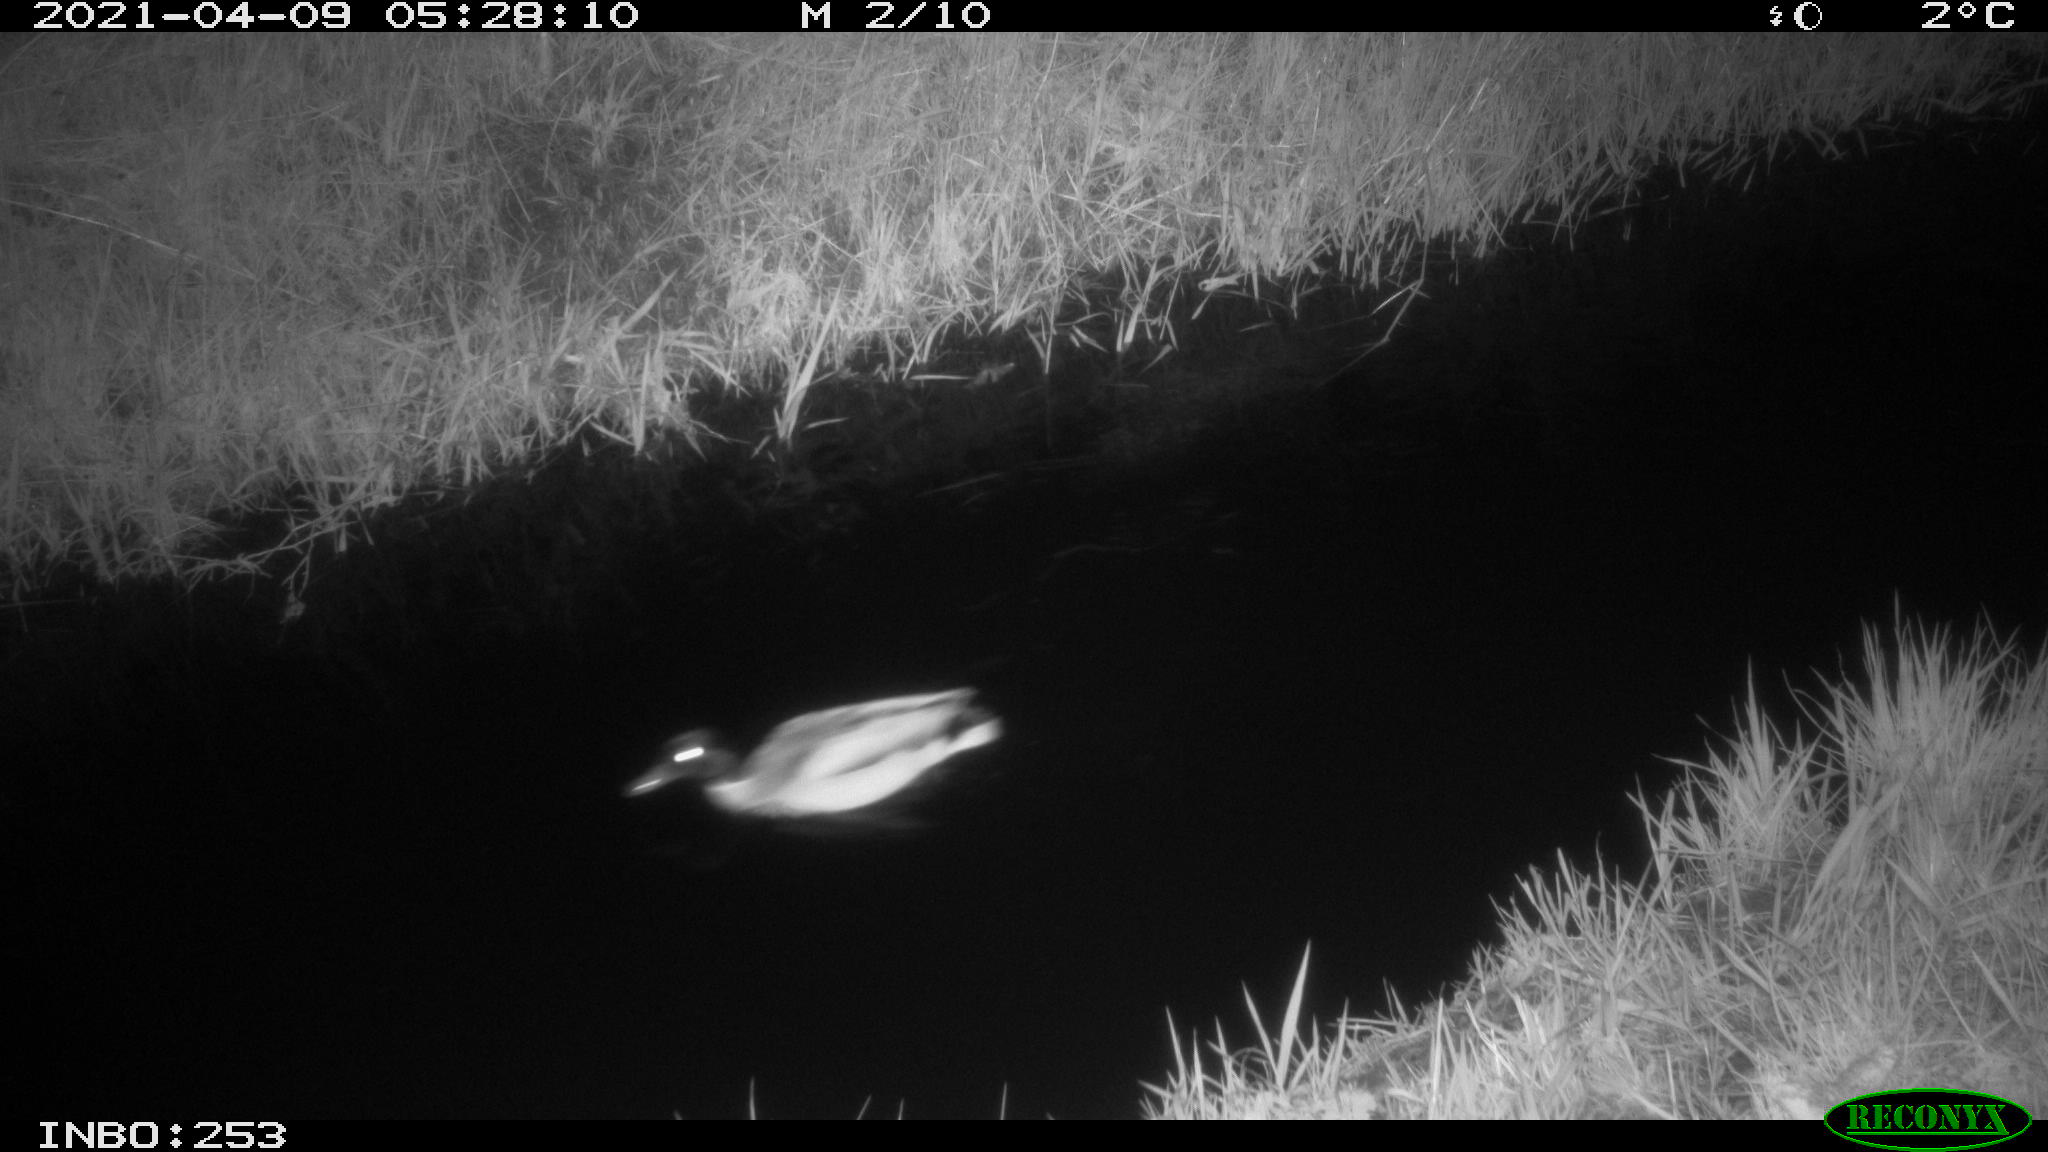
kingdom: Animalia
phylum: Chordata
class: Aves
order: Anseriformes
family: Anatidae
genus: Anas
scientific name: Anas platyrhynchos
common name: Mallard
